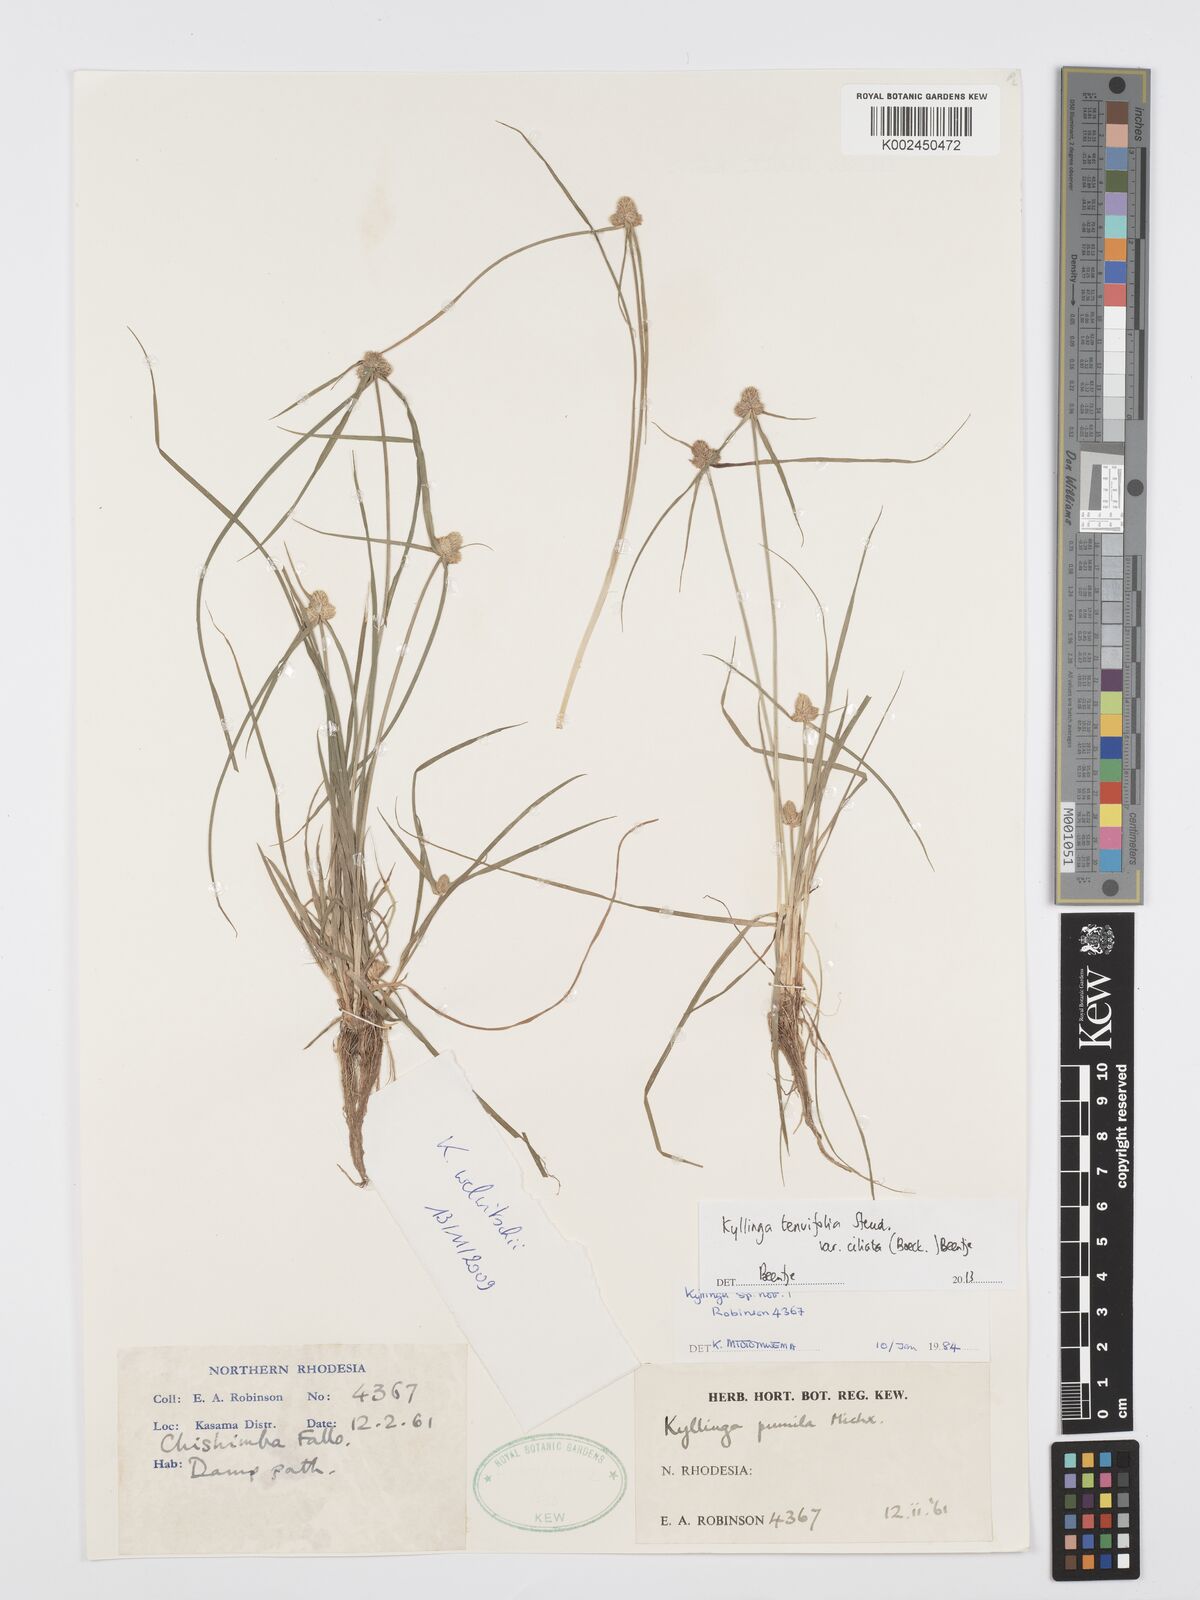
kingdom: Plantae
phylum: Tracheophyta
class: Liliopsida
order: Poales
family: Cyperaceae
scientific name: Cyperaceae
